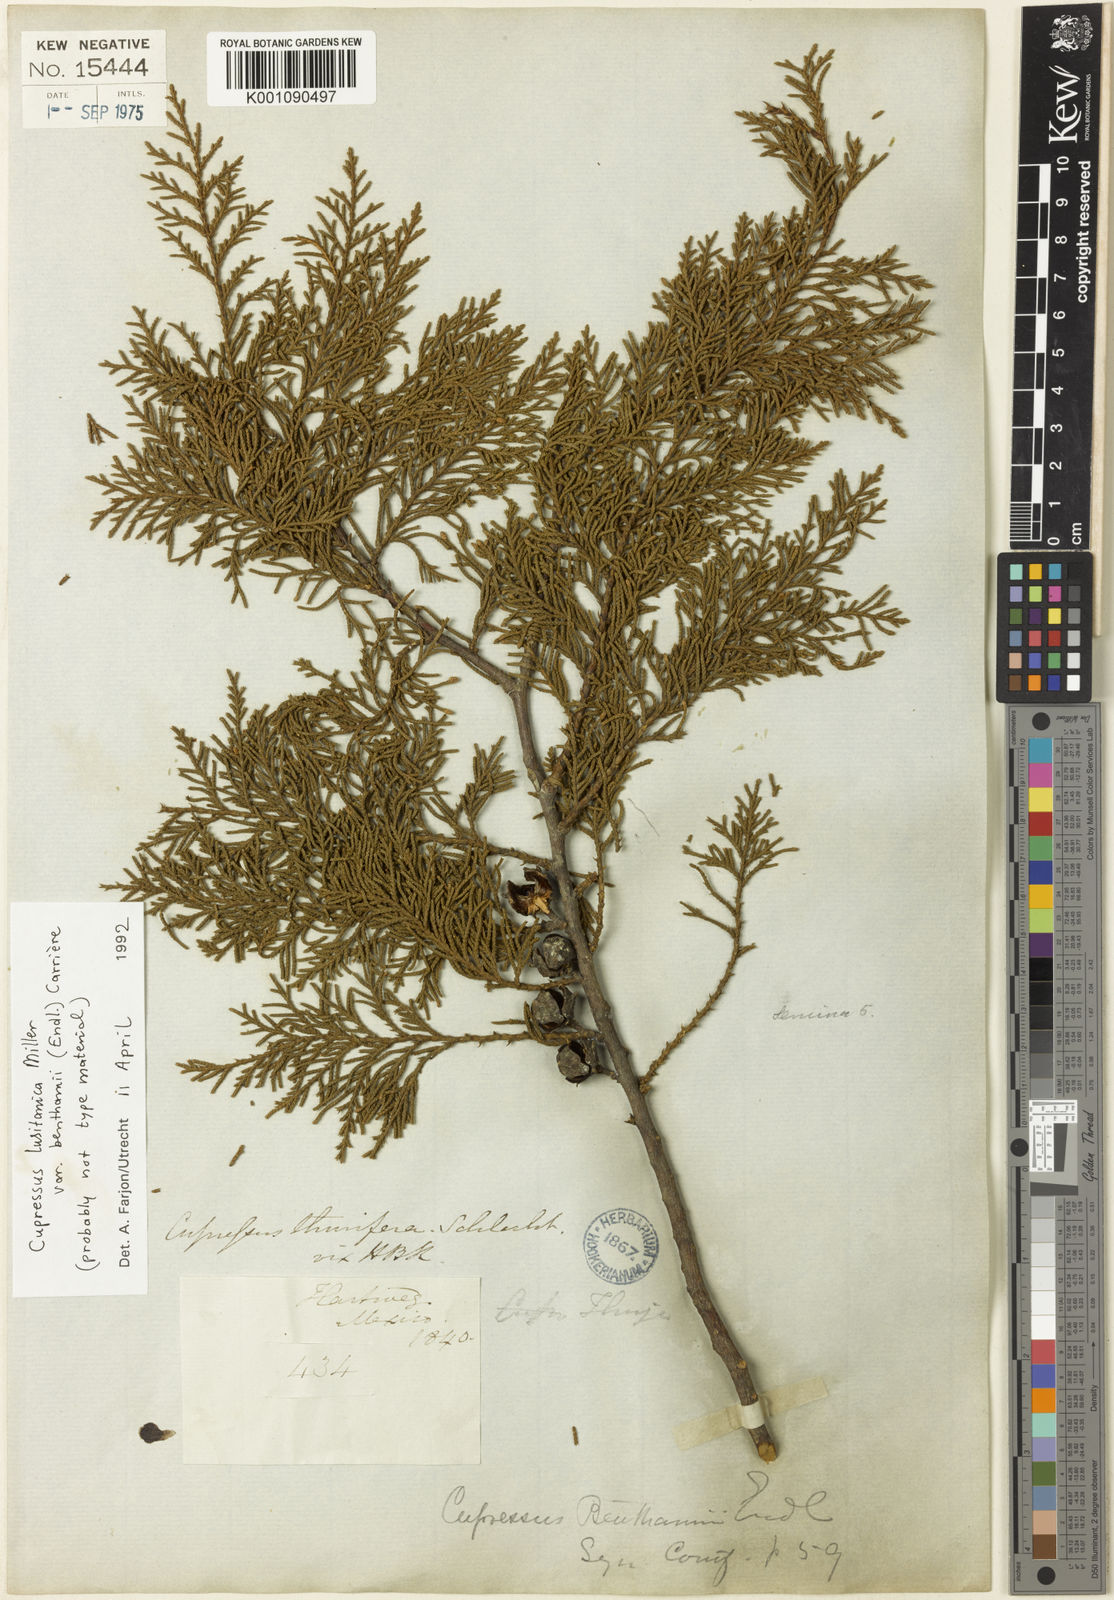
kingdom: Plantae
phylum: Tracheophyta
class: Pinopsida
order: Pinales
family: Cupressaceae
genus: Cupressus
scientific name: Cupressus lusitanica
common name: Mexican cypress
